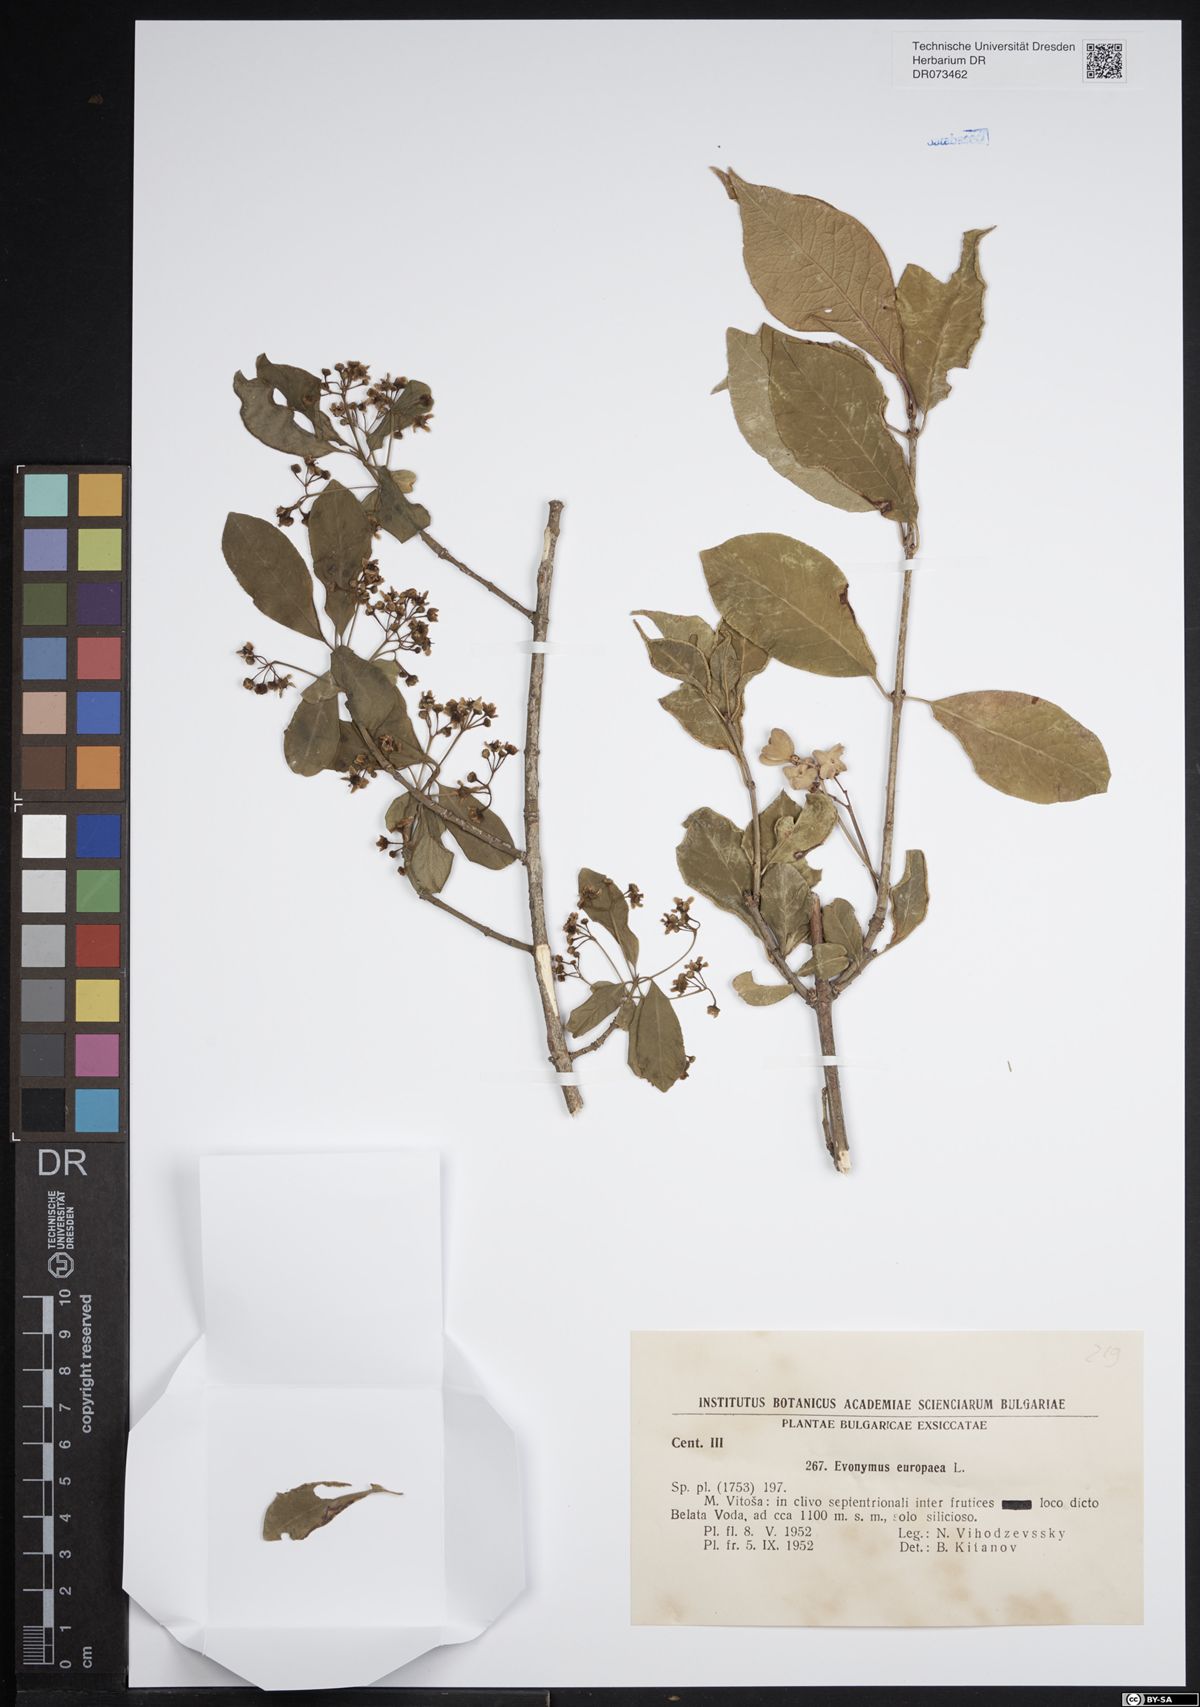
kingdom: Plantae
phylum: Tracheophyta
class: Magnoliopsida
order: Celastrales
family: Celastraceae
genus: Euonymus
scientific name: Euonymus europaeus
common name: Spindle
